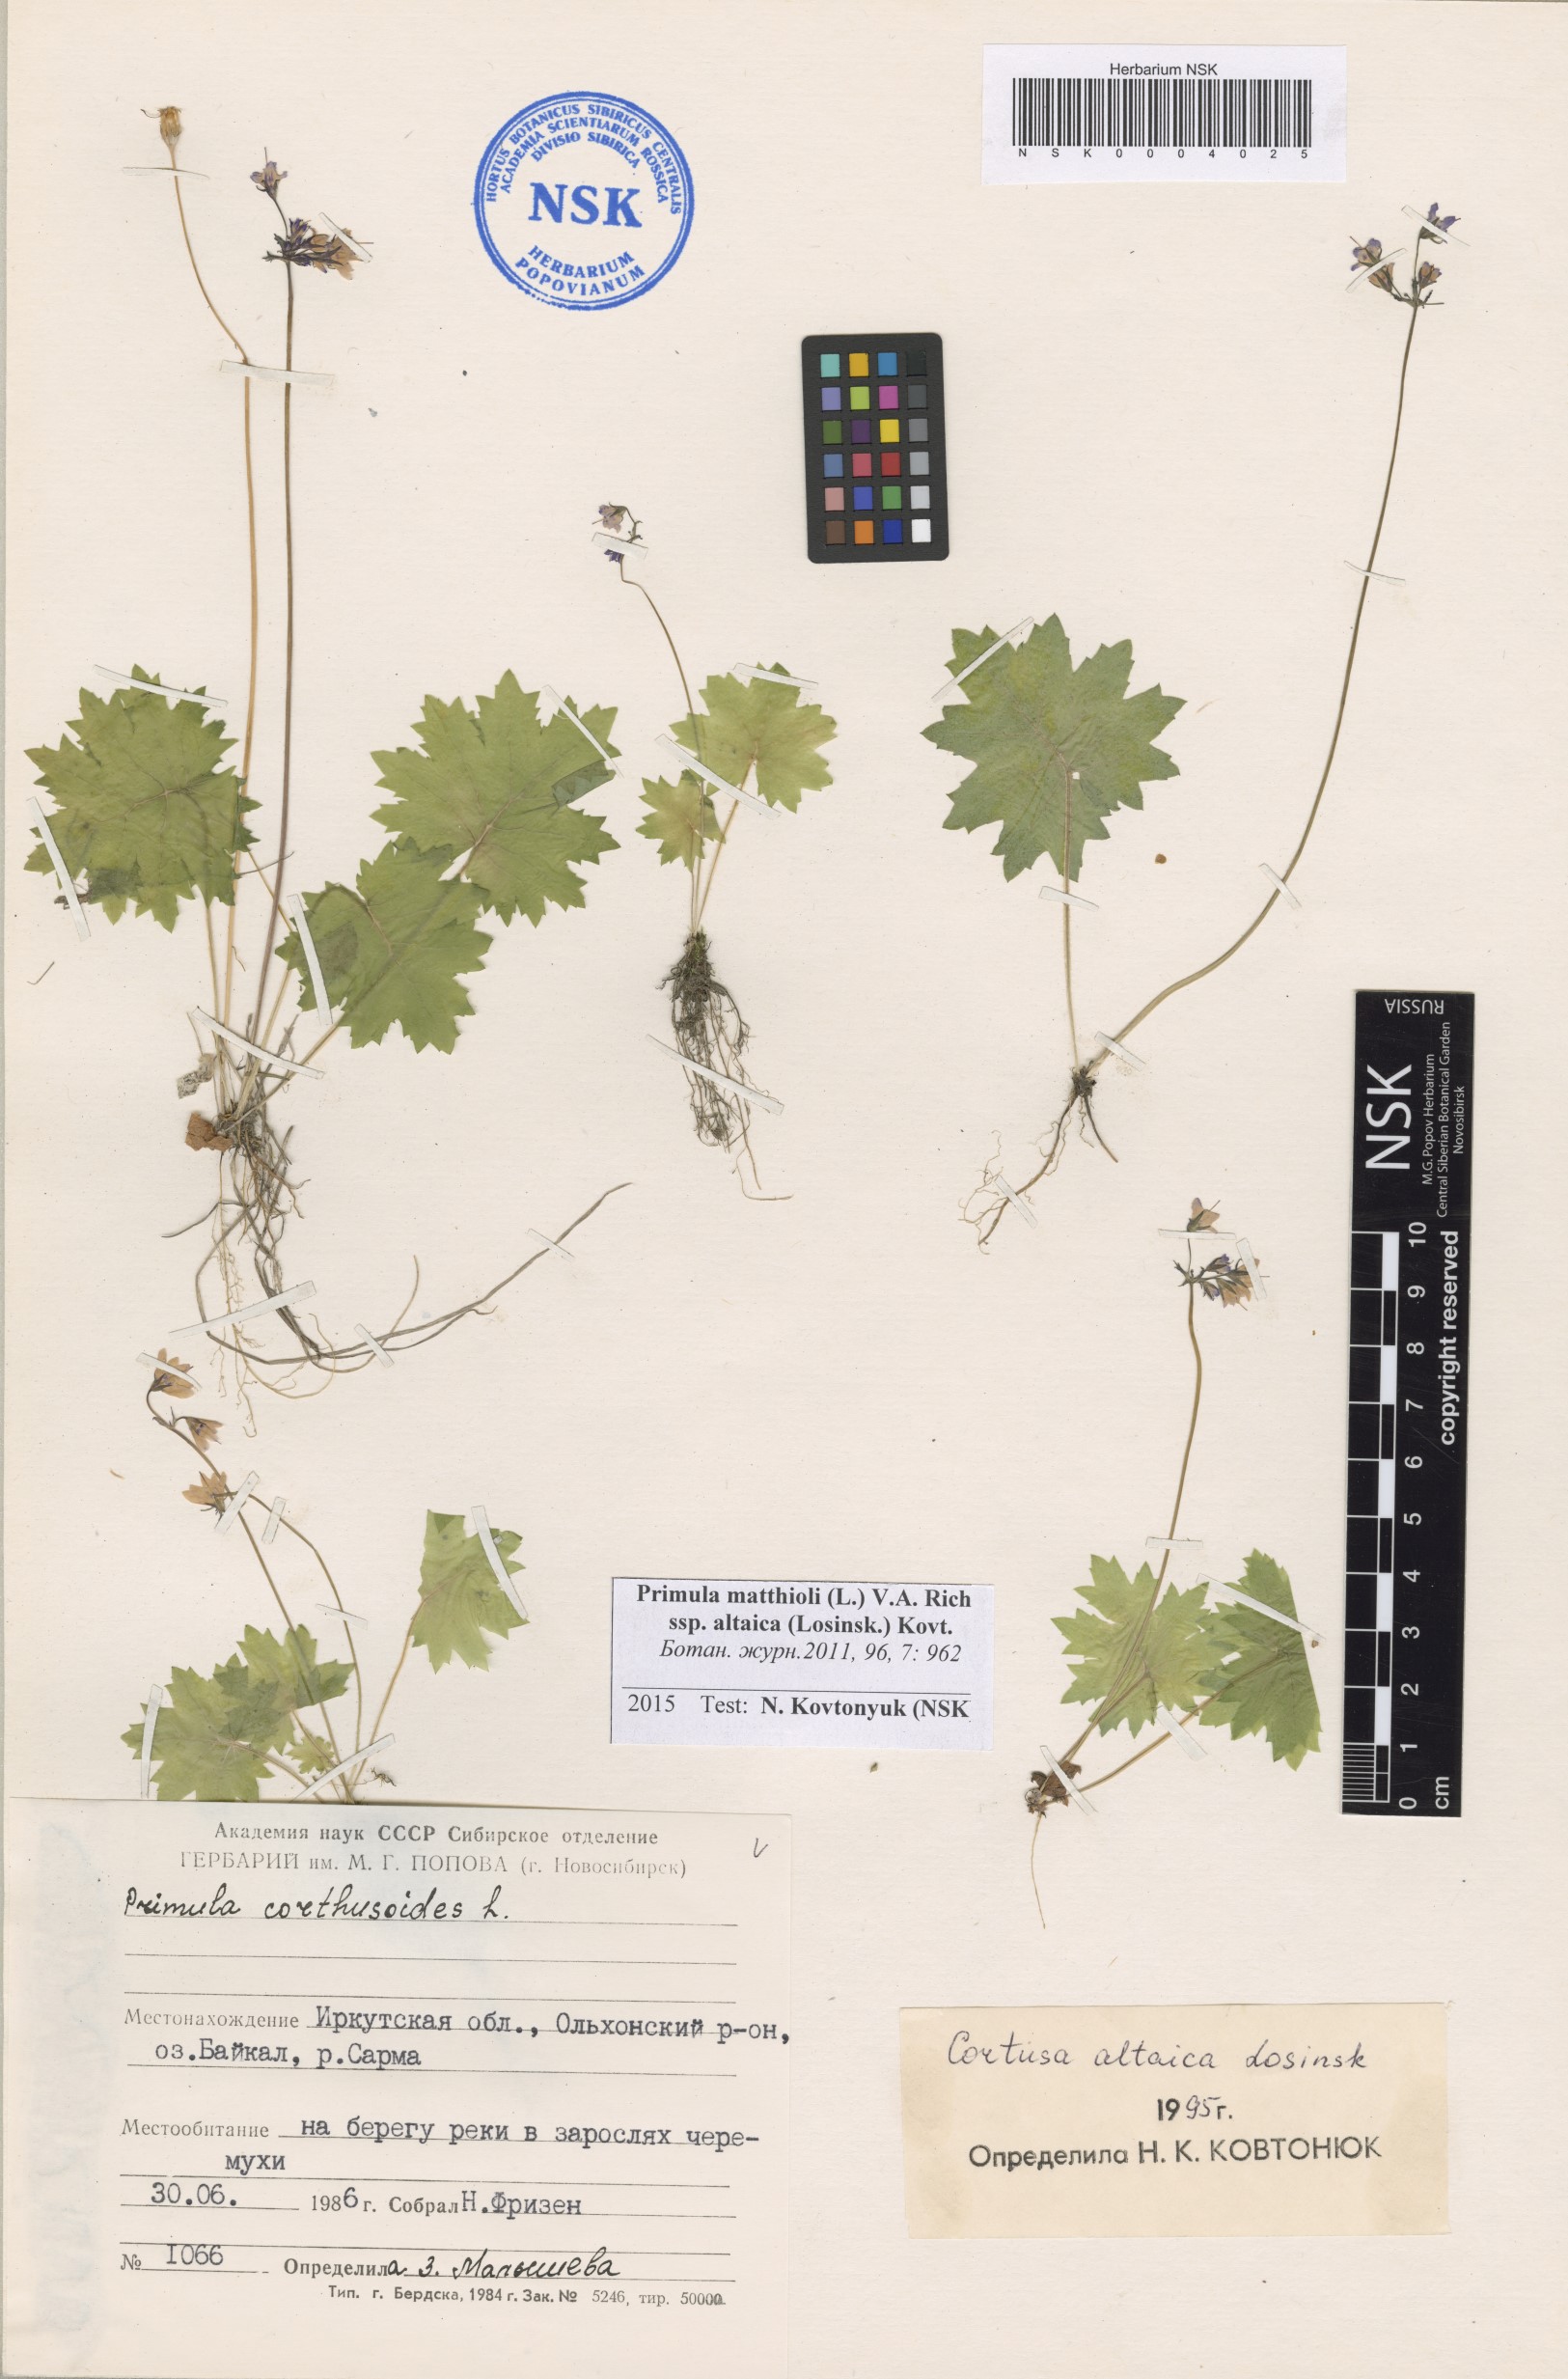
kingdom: Plantae
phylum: Tracheophyta
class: Magnoliopsida
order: Ericales
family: Primulaceae
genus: Primula
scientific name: Primula matthioli
